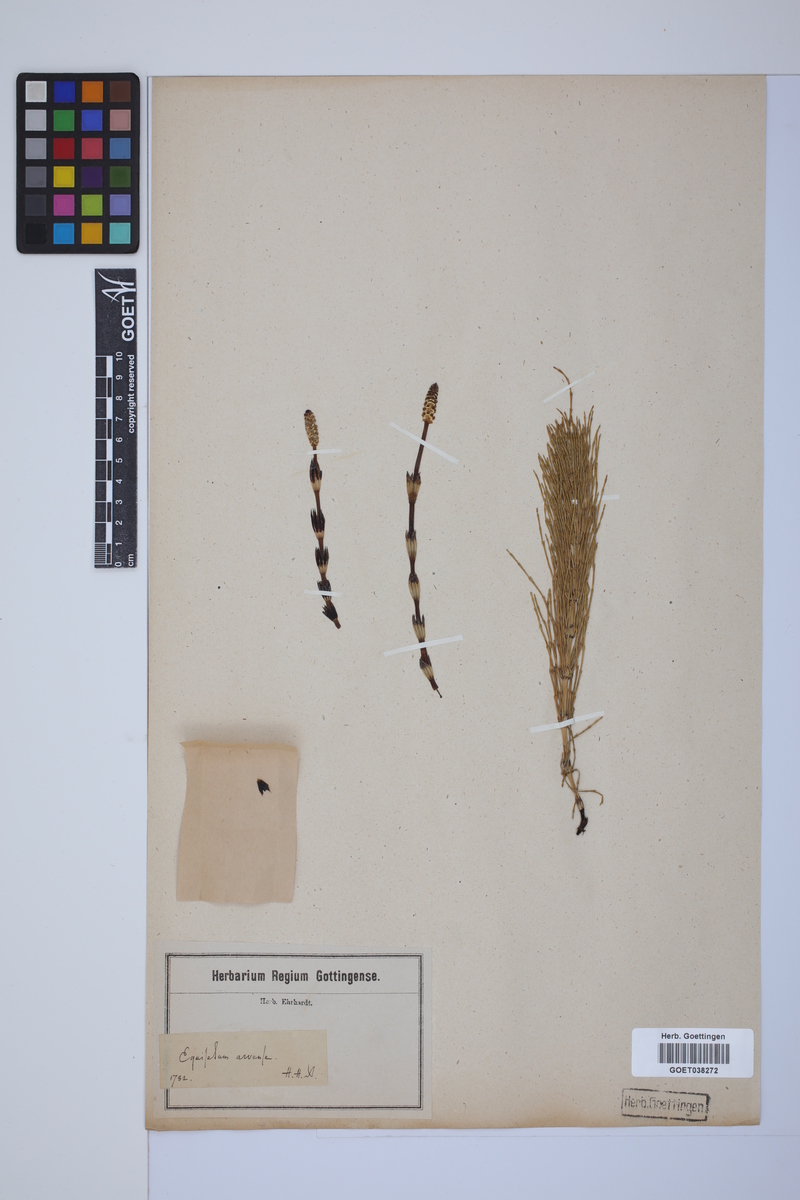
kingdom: Plantae
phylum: Tracheophyta
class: Polypodiopsida
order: Equisetales
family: Equisetaceae
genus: Equisetum
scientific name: Equisetum arvense
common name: Field horsetail
